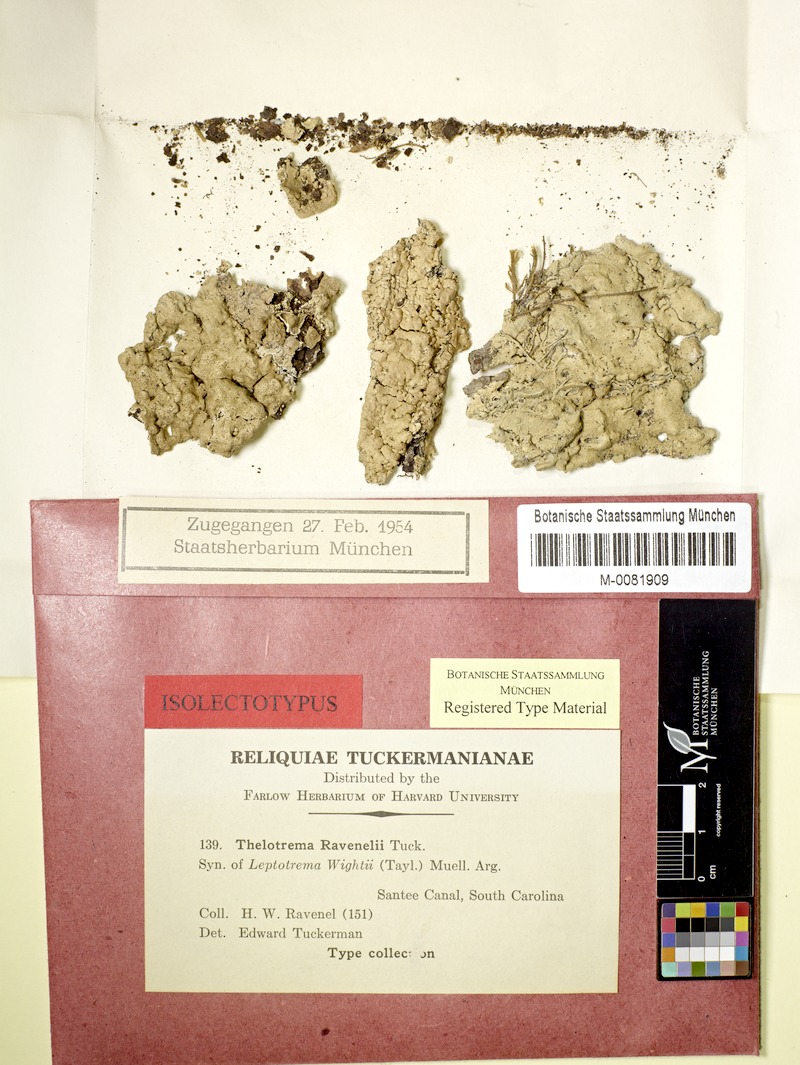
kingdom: Fungi
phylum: Ascomycota
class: Lecanoromycetes
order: Ostropales
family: Graphidaceae
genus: Sanguinotrema
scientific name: Sanguinotrema wightii
